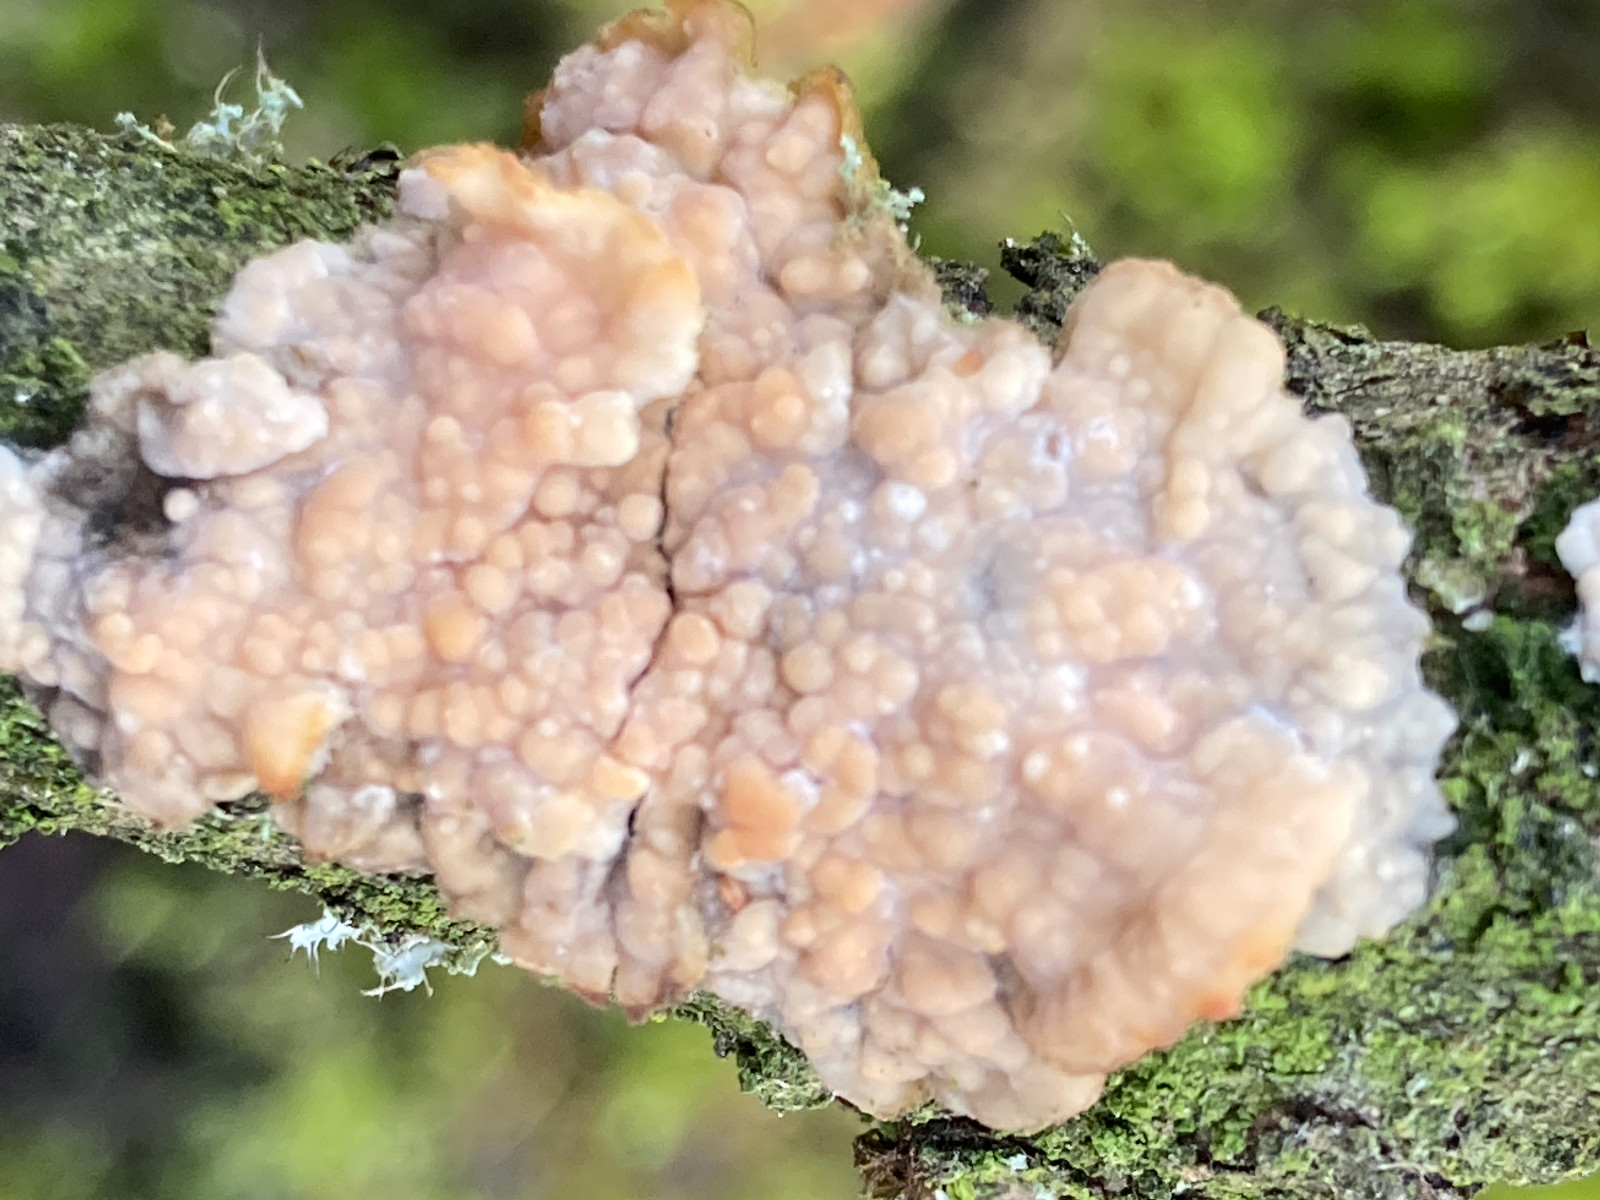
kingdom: Fungi
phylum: Basidiomycota
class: Agaricomycetes
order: Polyporales
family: Meruliaceae
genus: Phlebia
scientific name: Phlebia radiata
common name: stråle-åresvamp
